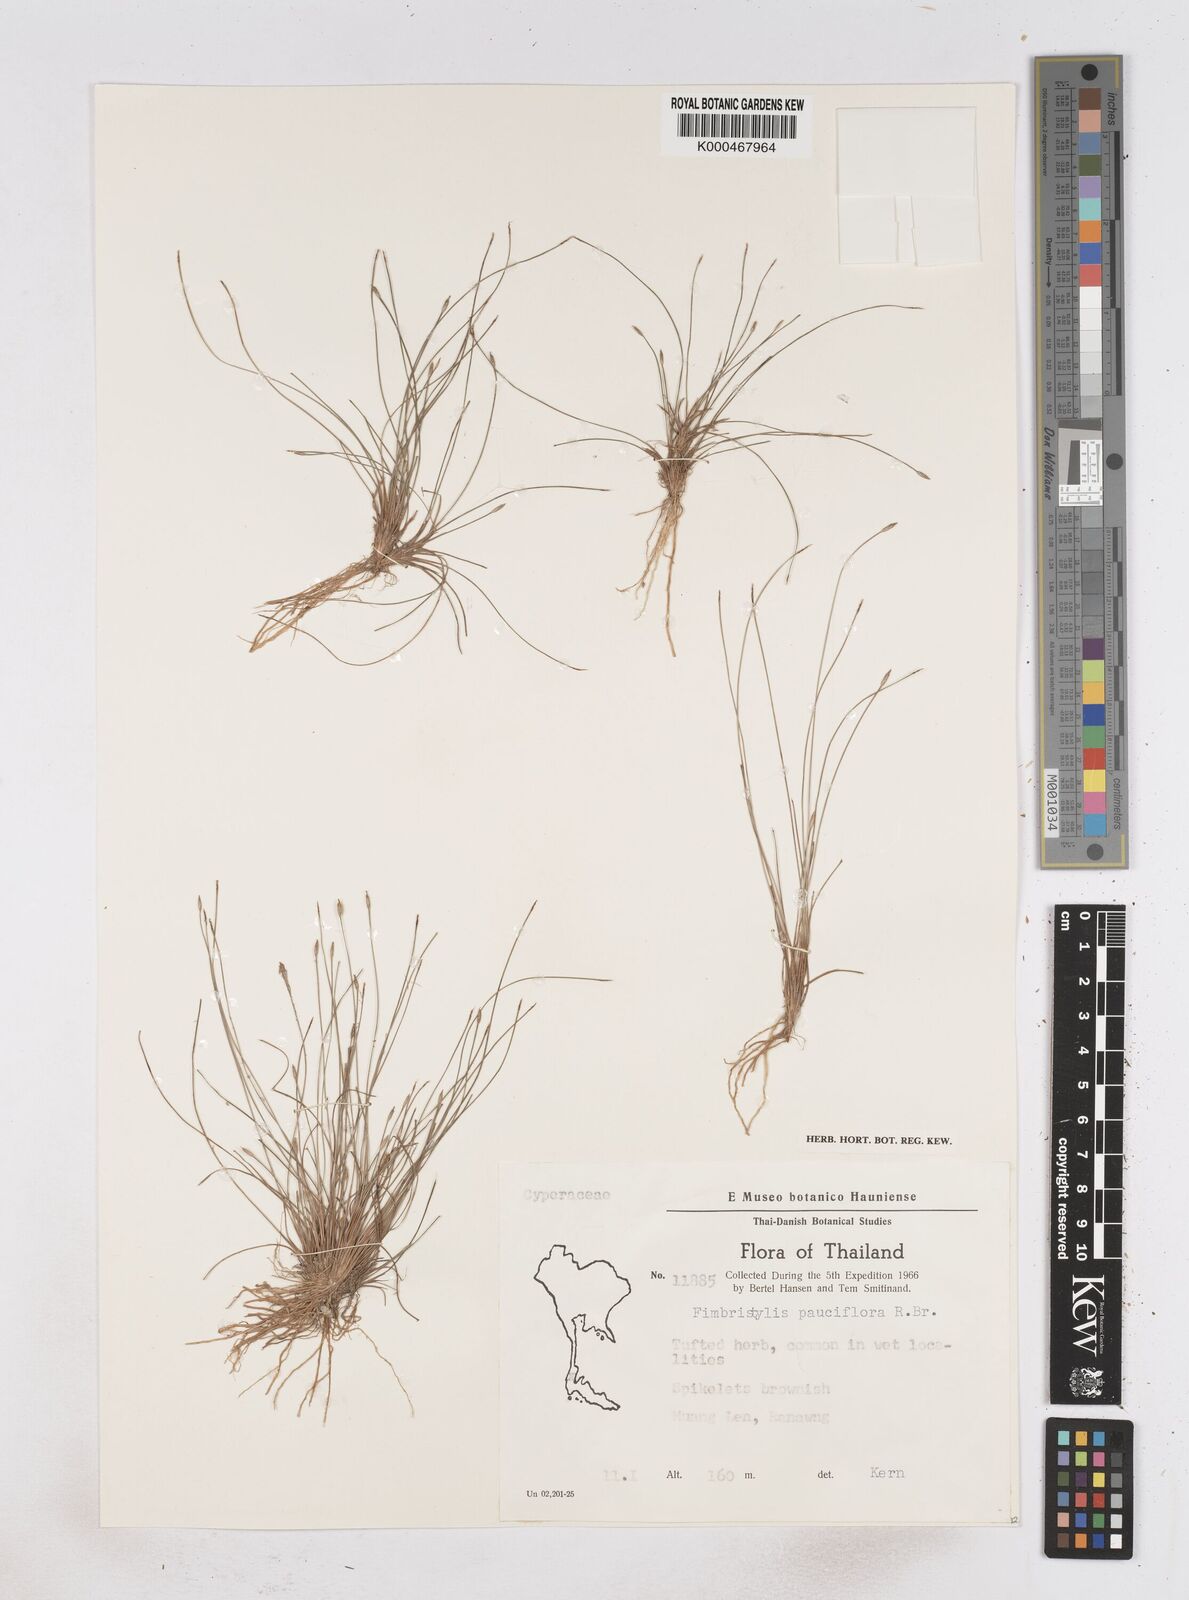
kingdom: Plantae
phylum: Tracheophyta
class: Liliopsida
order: Poales
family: Cyperaceae
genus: Fimbristylis
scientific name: Fimbristylis pauciflora
